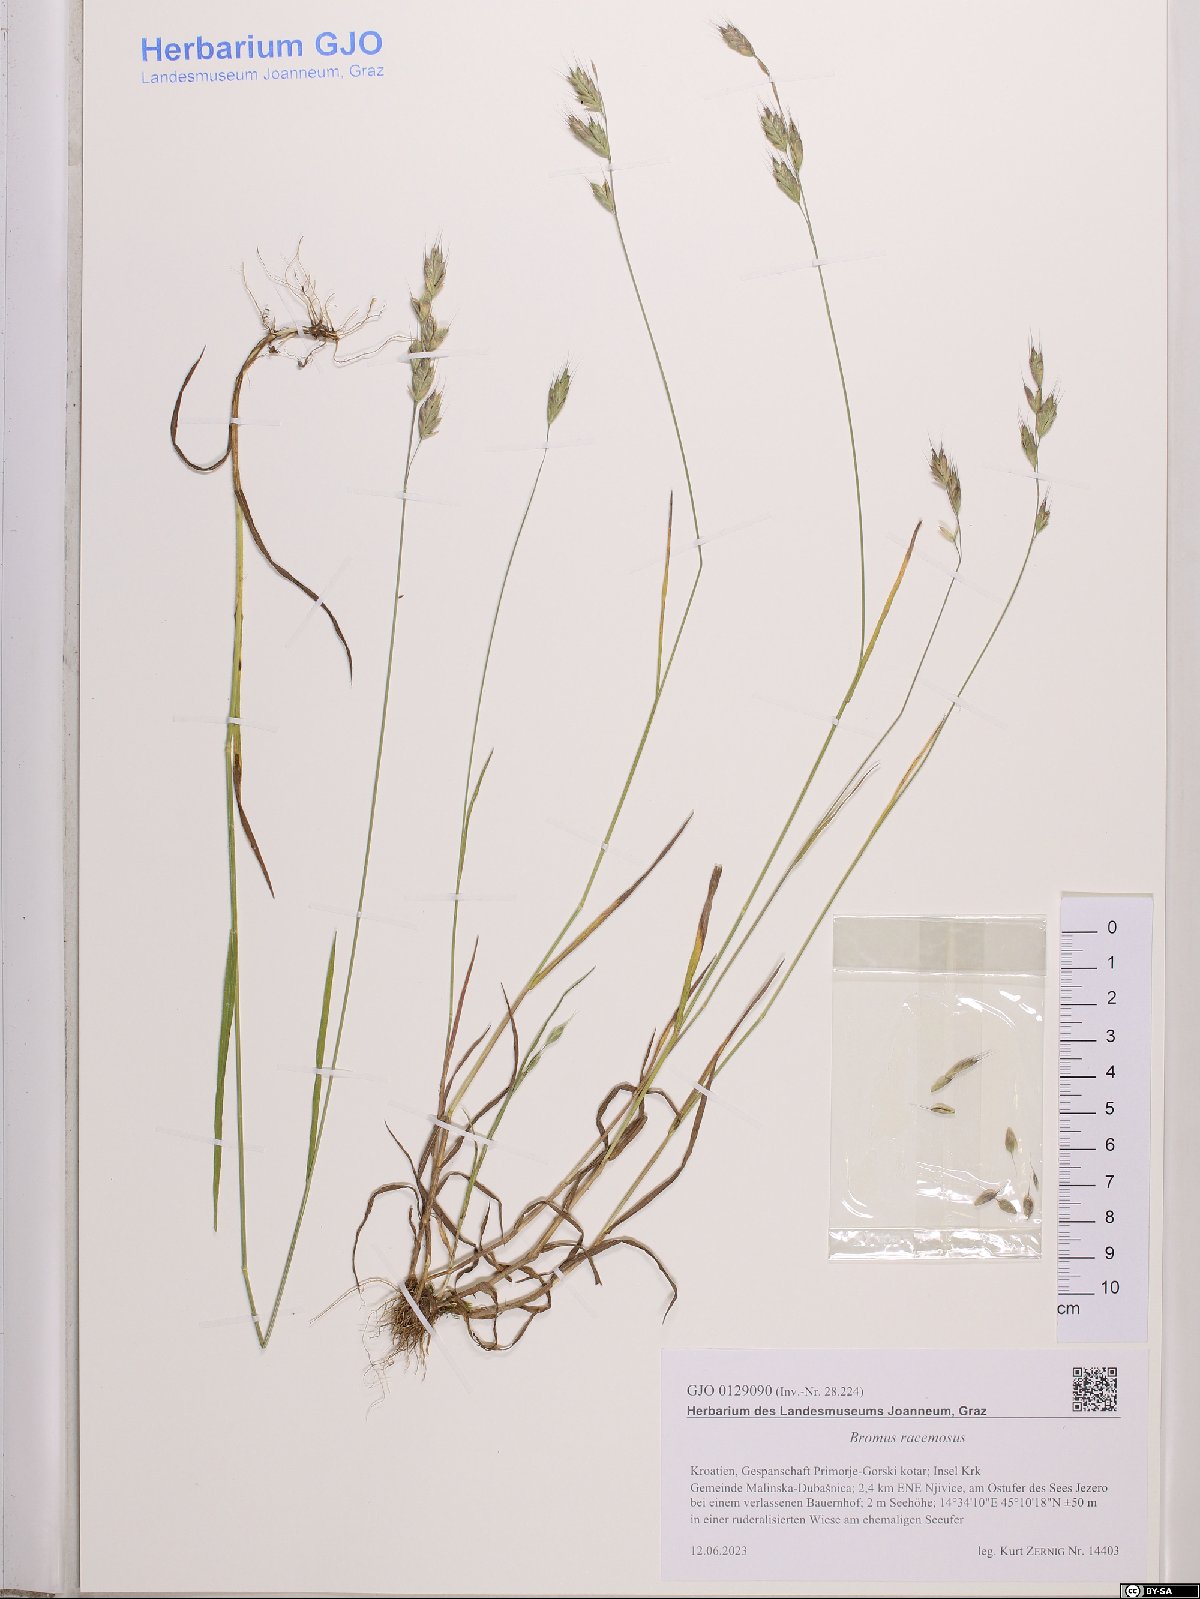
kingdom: Plantae
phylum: Tracheophyta
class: Liliopsida
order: Poales
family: Poaceae
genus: Bromus
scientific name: Bromus racemosus
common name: Bald brome
